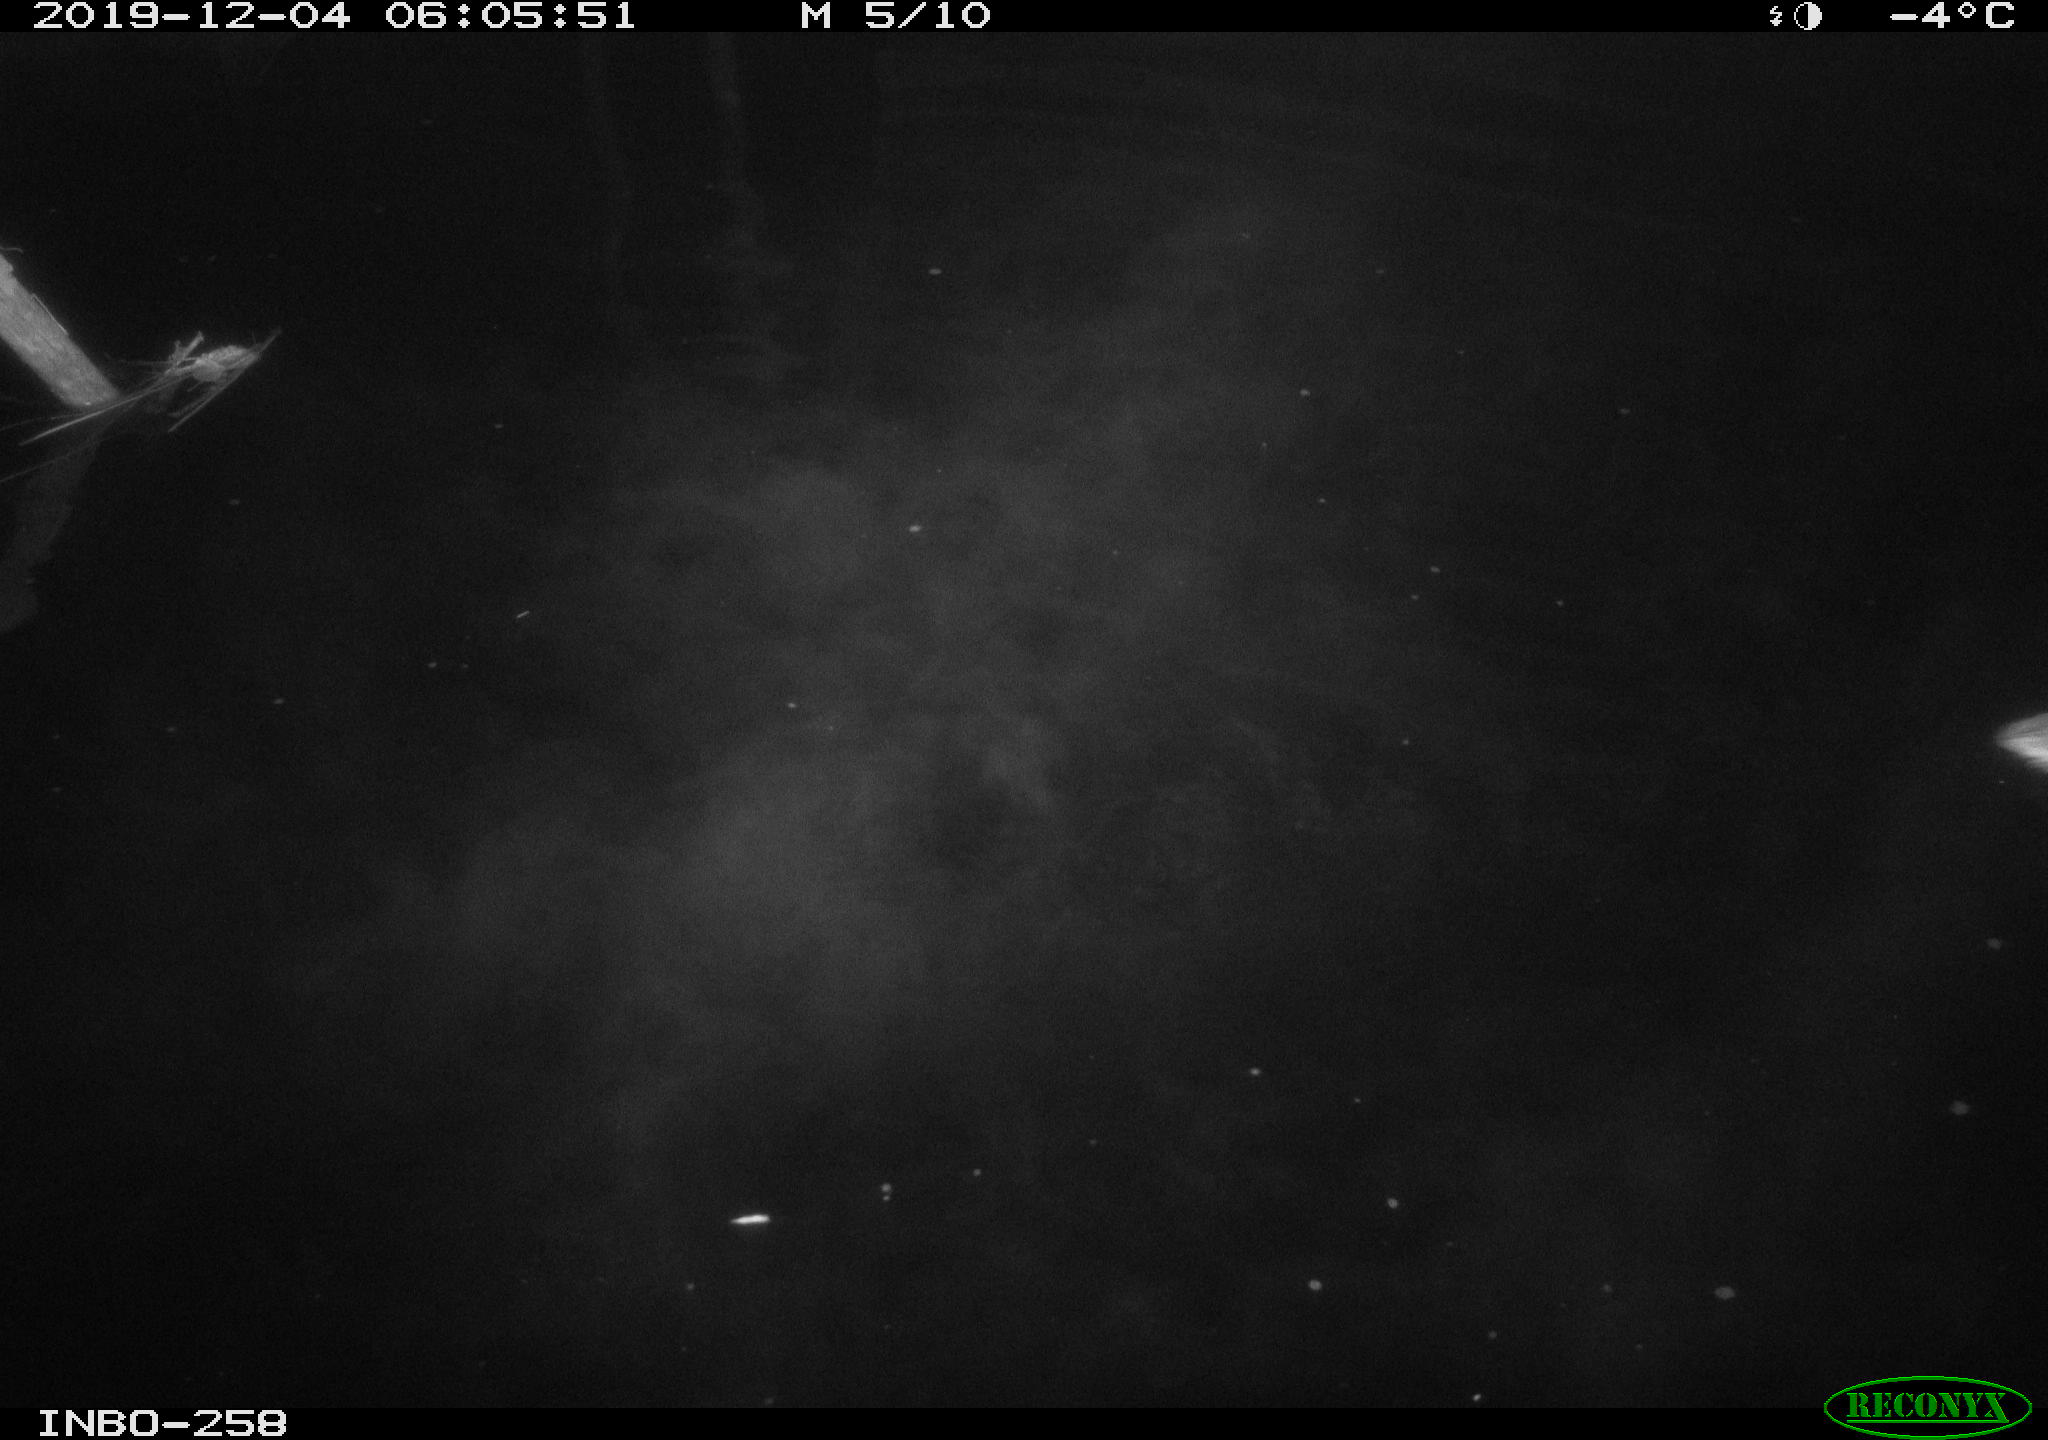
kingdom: Animalia
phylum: Chordata
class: Aves
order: Anseriformes
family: Anatidae
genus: Anas
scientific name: Anas platyrhynchos
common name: Mallard
